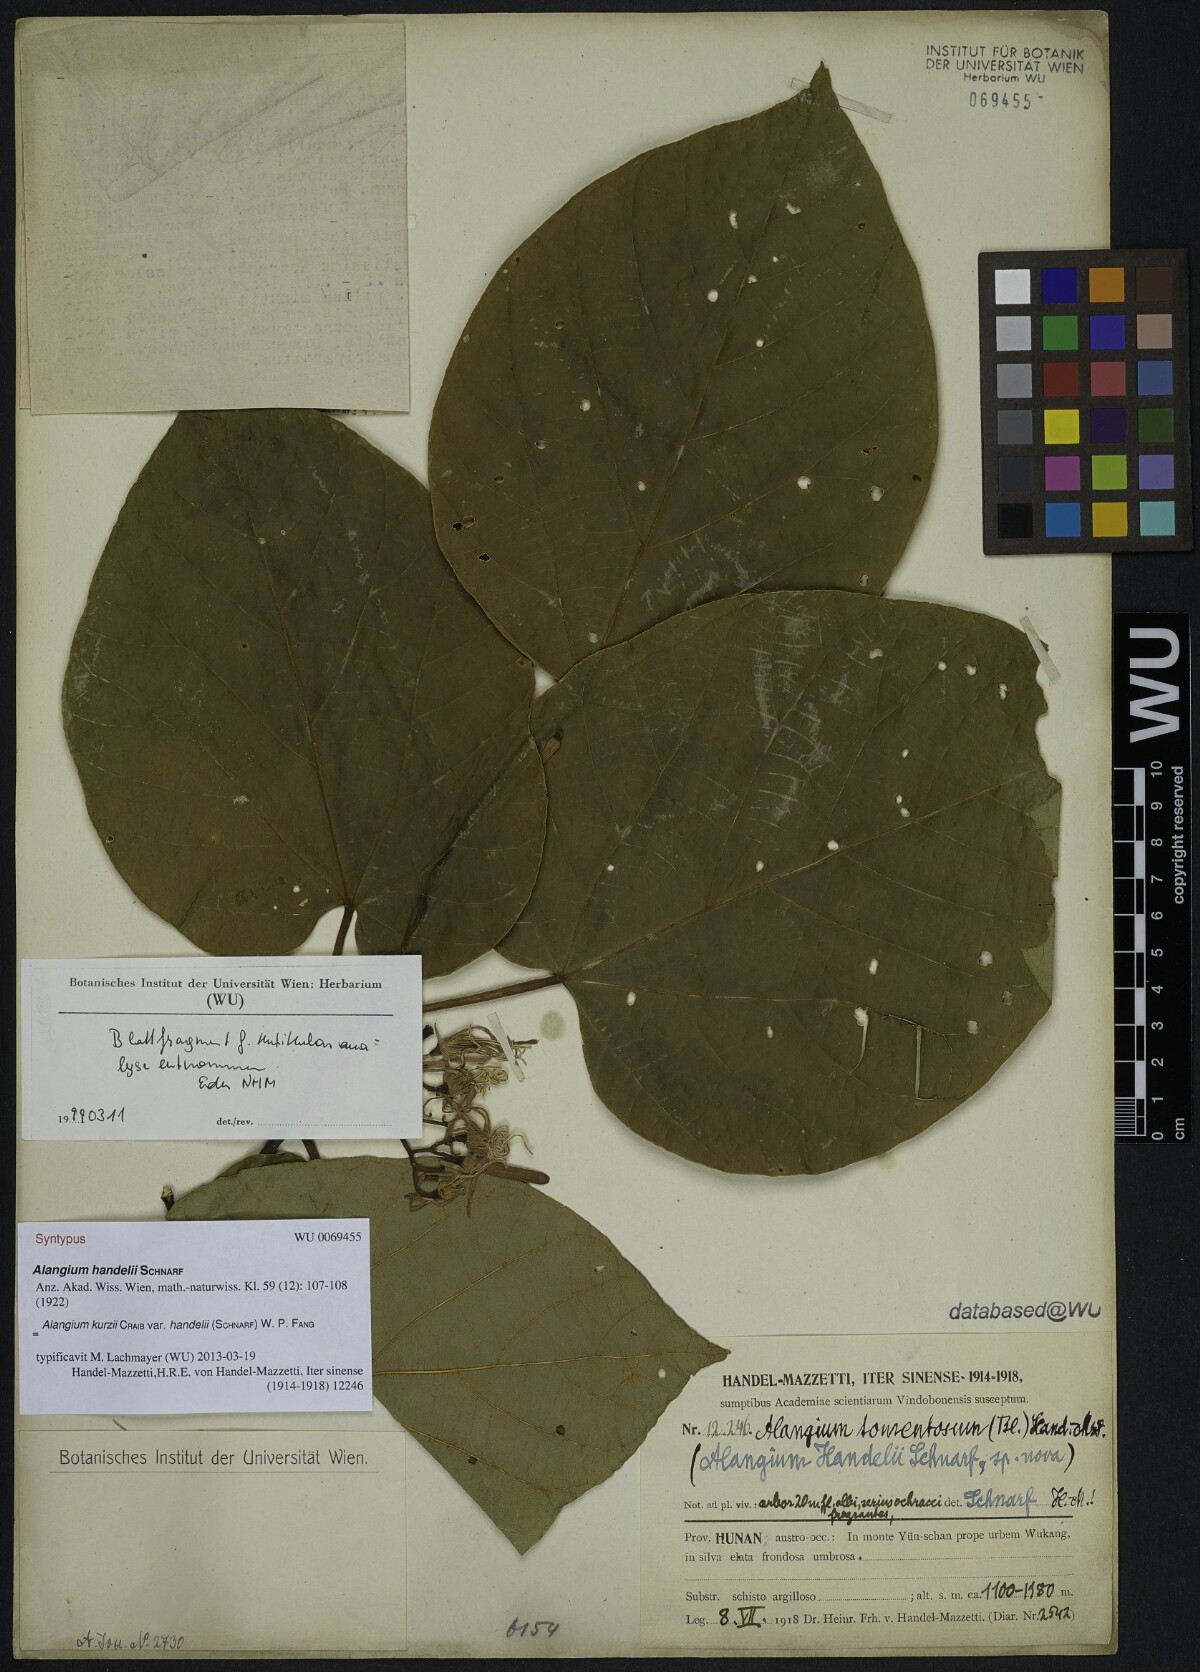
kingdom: Plantae
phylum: Tracheophyta
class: Magnoliopsida
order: Cornales
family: Cornaceae
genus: Alangium
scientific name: Alangium kurzii
